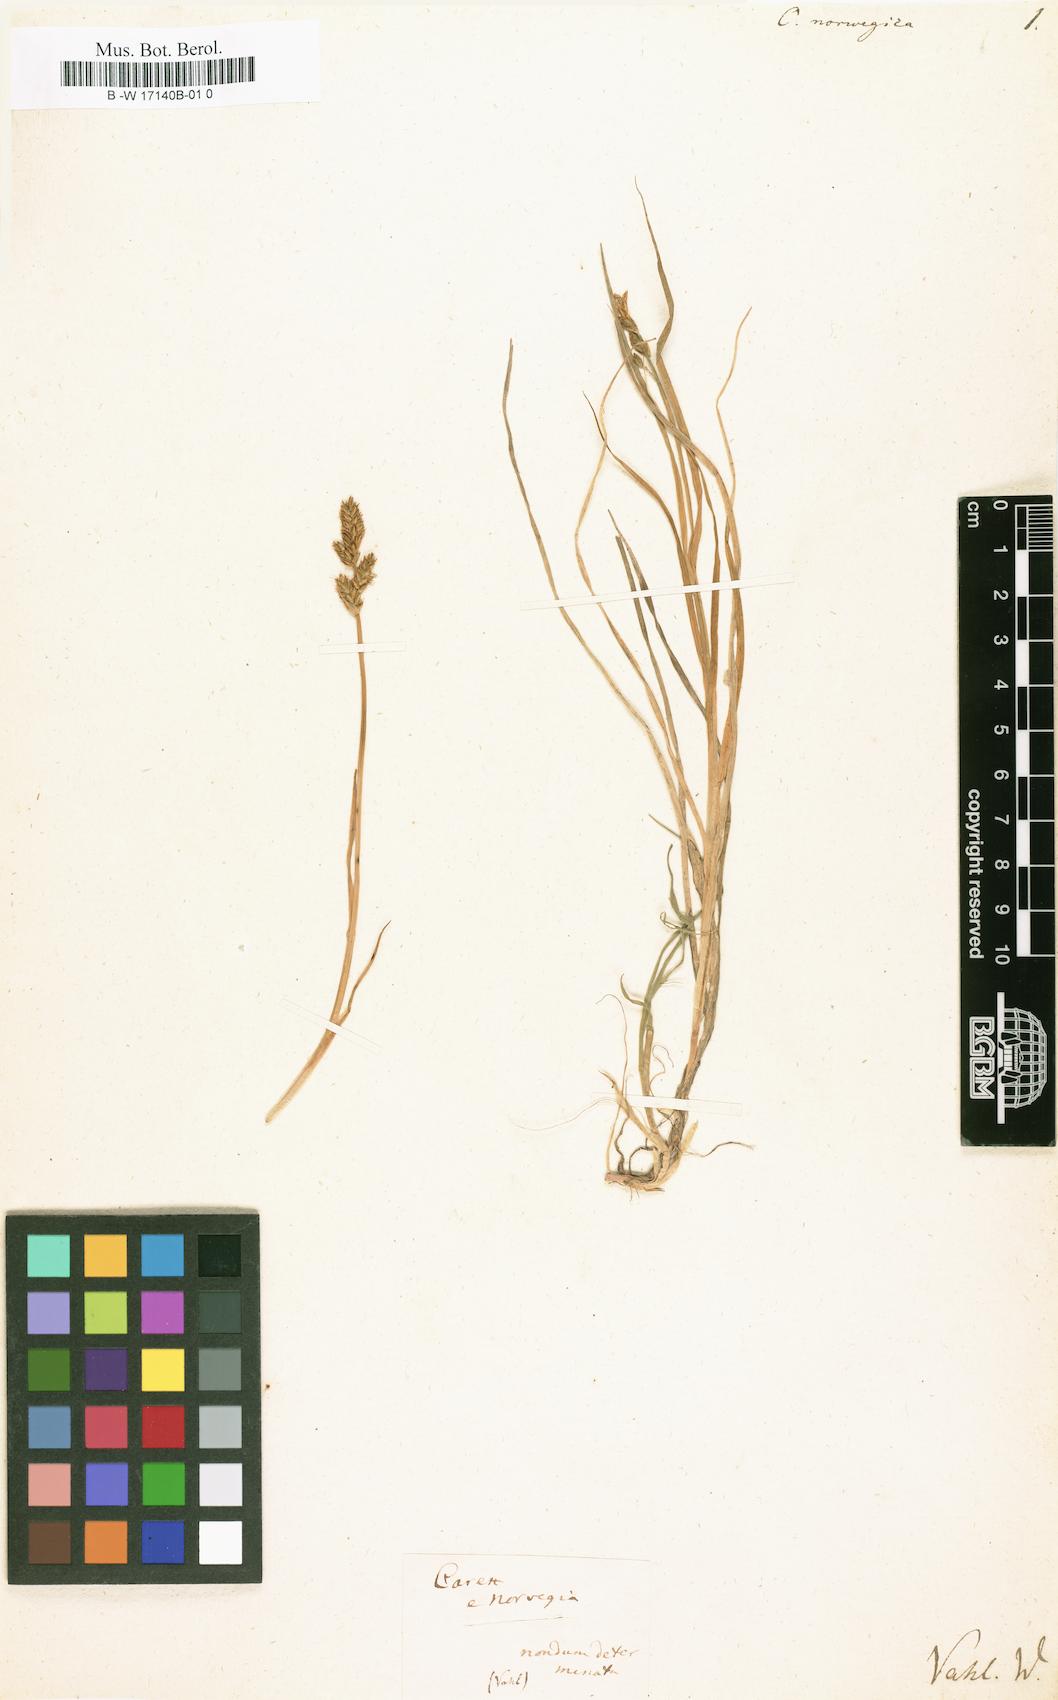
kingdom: Plantae
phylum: Tracheophyta
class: Liliopsida
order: Poales
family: Cyperaceae
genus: Carex
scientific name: Carex norvegica
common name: Close-headed alpine-sedge
